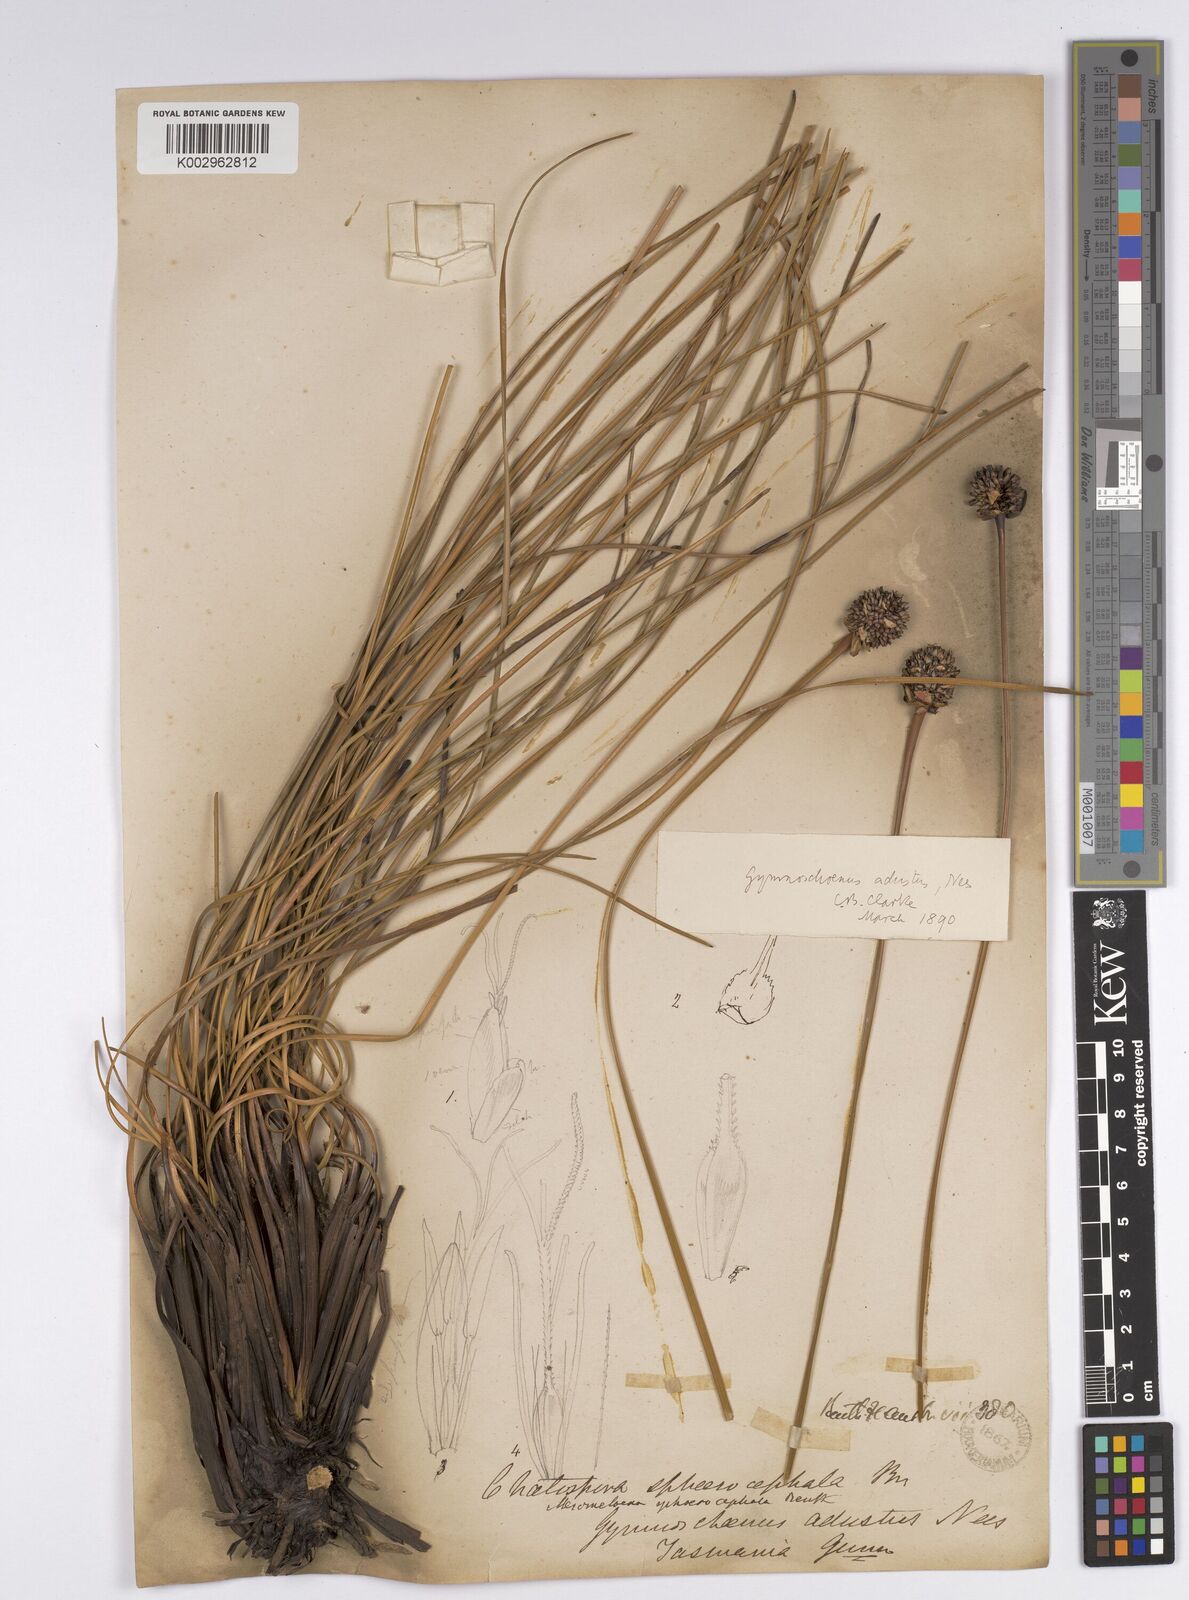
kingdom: Plantae
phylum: Tracheophyta
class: Liliopsida
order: Poales
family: Cyperaceae
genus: Gymnoschoenus
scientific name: Gymnoschoenus sphaerocephalus
